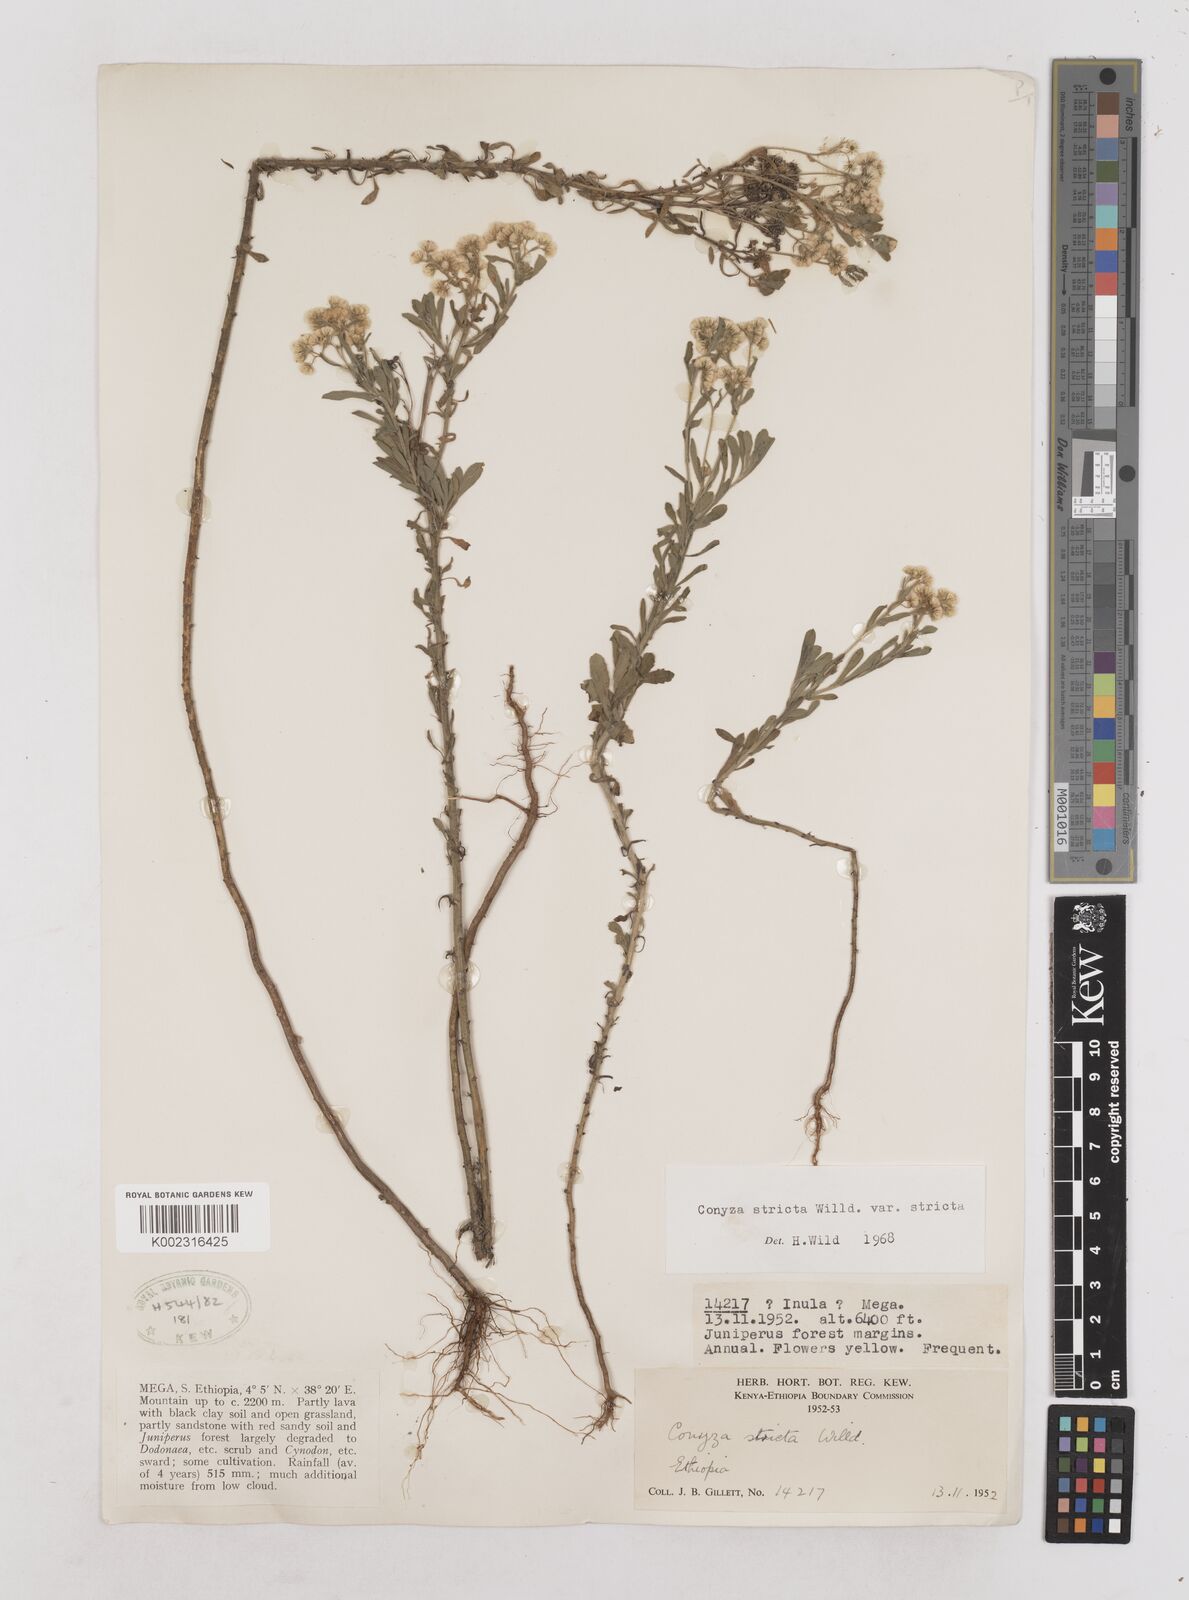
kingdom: Plantae
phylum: Tracheophyta
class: Magnoliopsida
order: Asterales
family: Asteraceae
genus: Nidorella
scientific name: Nidorella triloba
